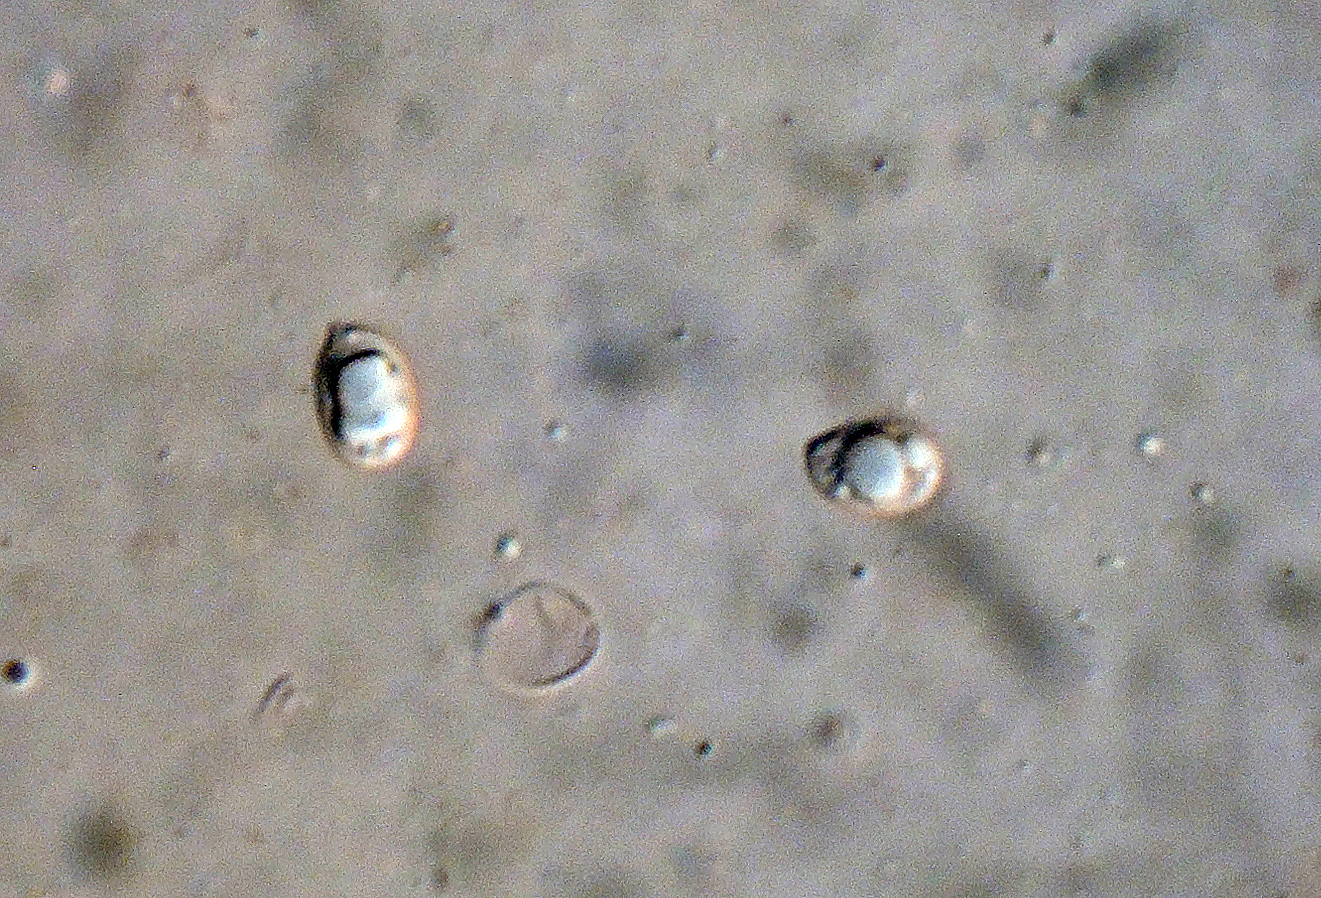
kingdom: Fungi
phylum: Basidiomycota
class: Agaricomycetes
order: Agaricales
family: Lyophyllaceae
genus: Tephrocybe
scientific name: Tephrocybe atrata
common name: brandplet-gråblad
